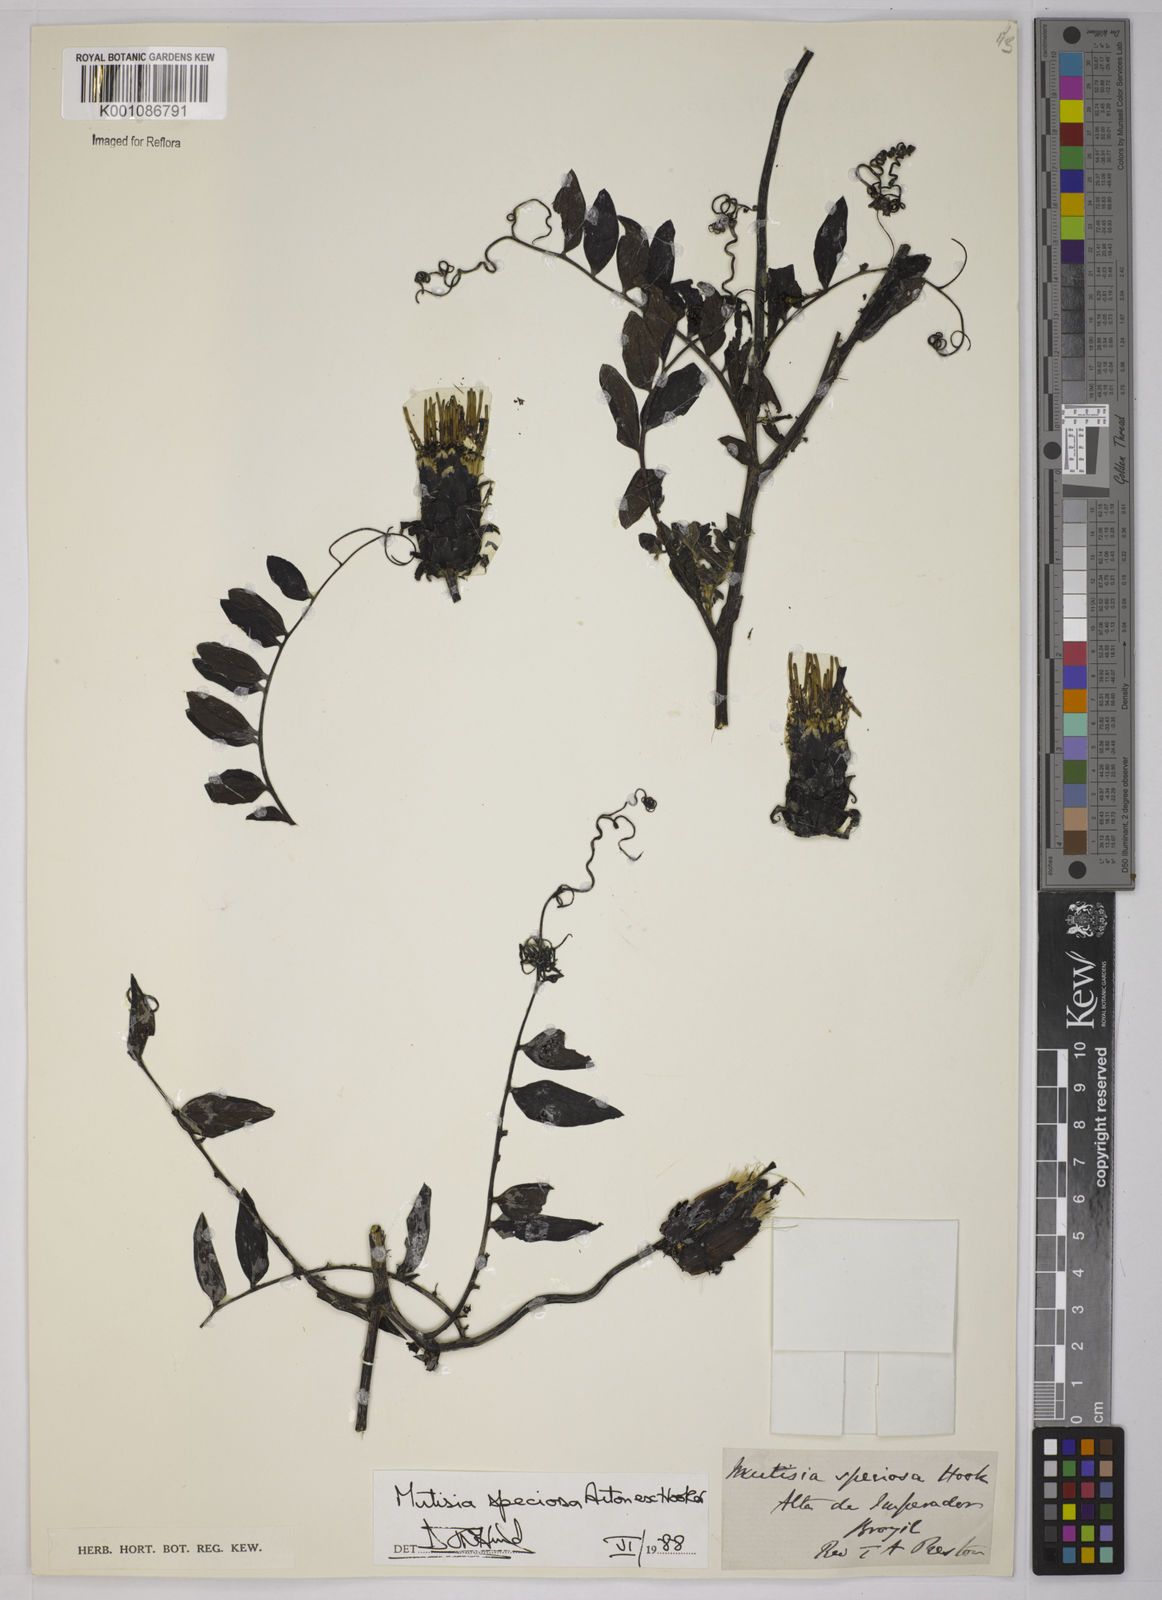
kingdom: Plantae
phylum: Tracheophyta
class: Magnoliopsida
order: Asterales
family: Asteraceae
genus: Mutisia
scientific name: Mutisia speciosa
